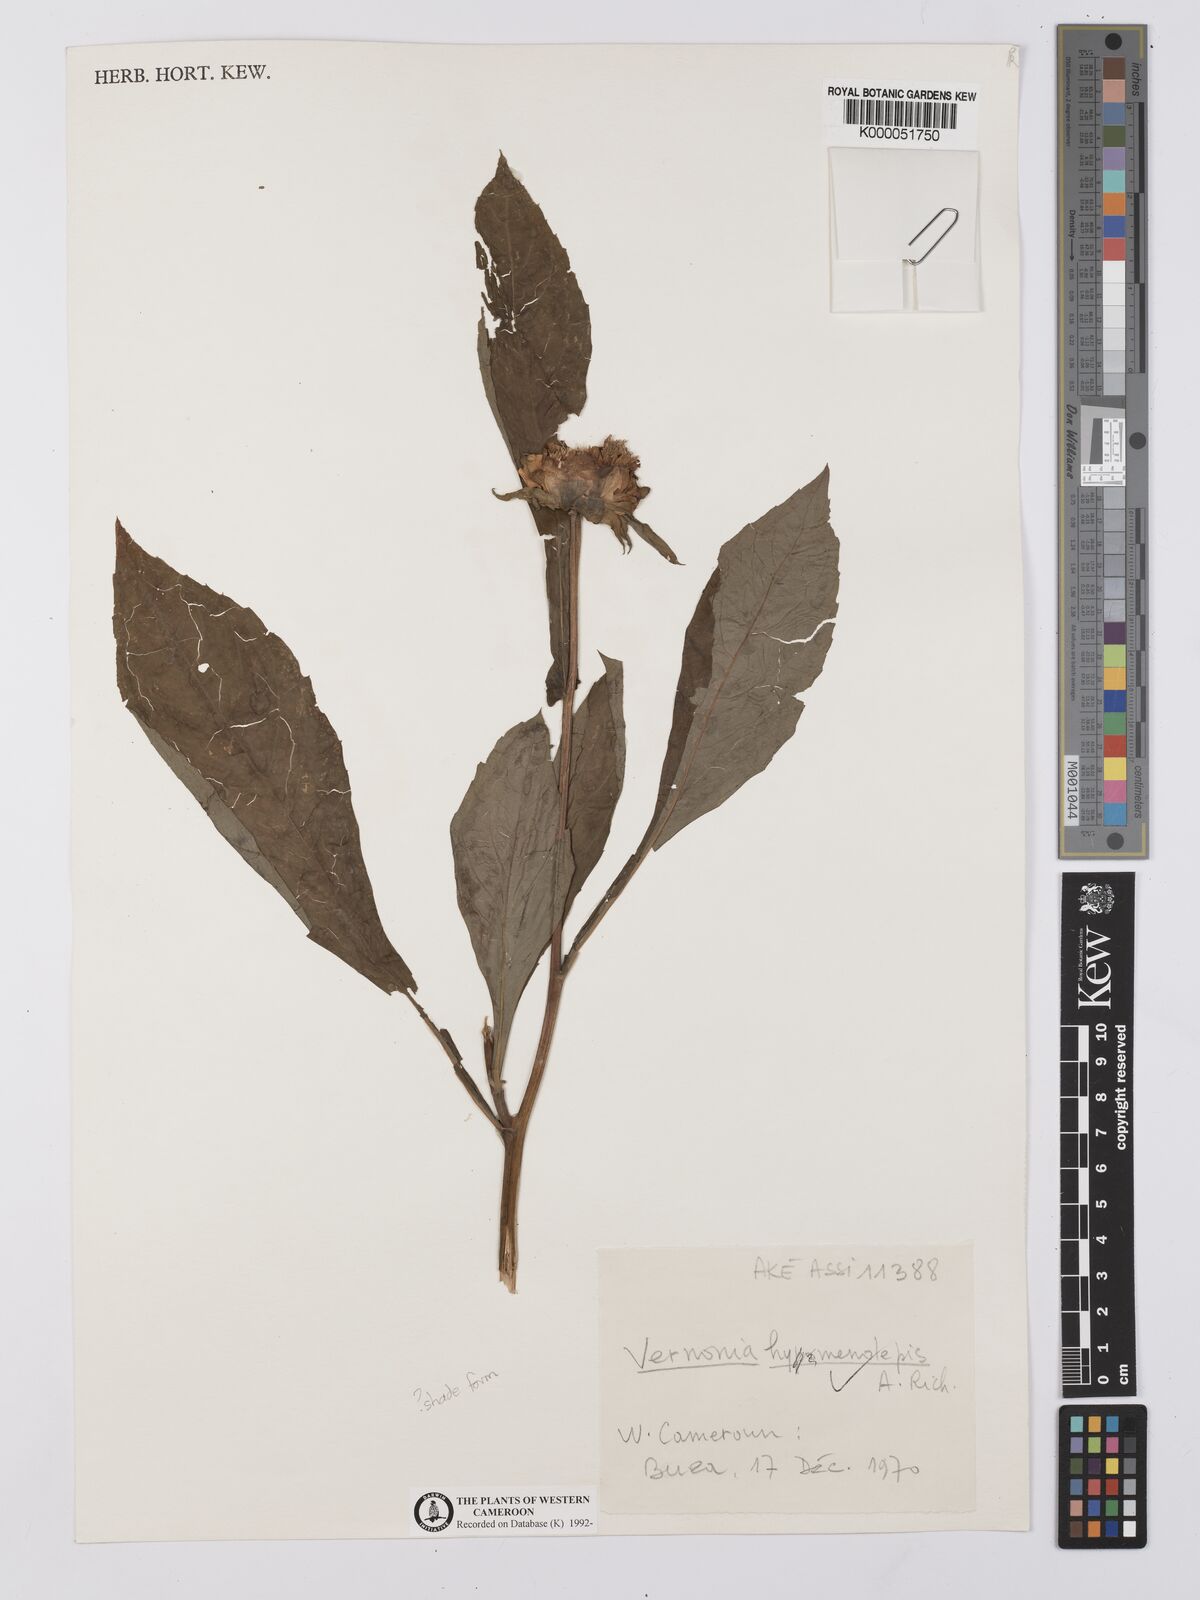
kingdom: Plantae
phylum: Tracheophyta
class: Magnoliopsida
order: Asterales
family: Asteraceae
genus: Baccharoides
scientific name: Baccharoides hymenolepis
